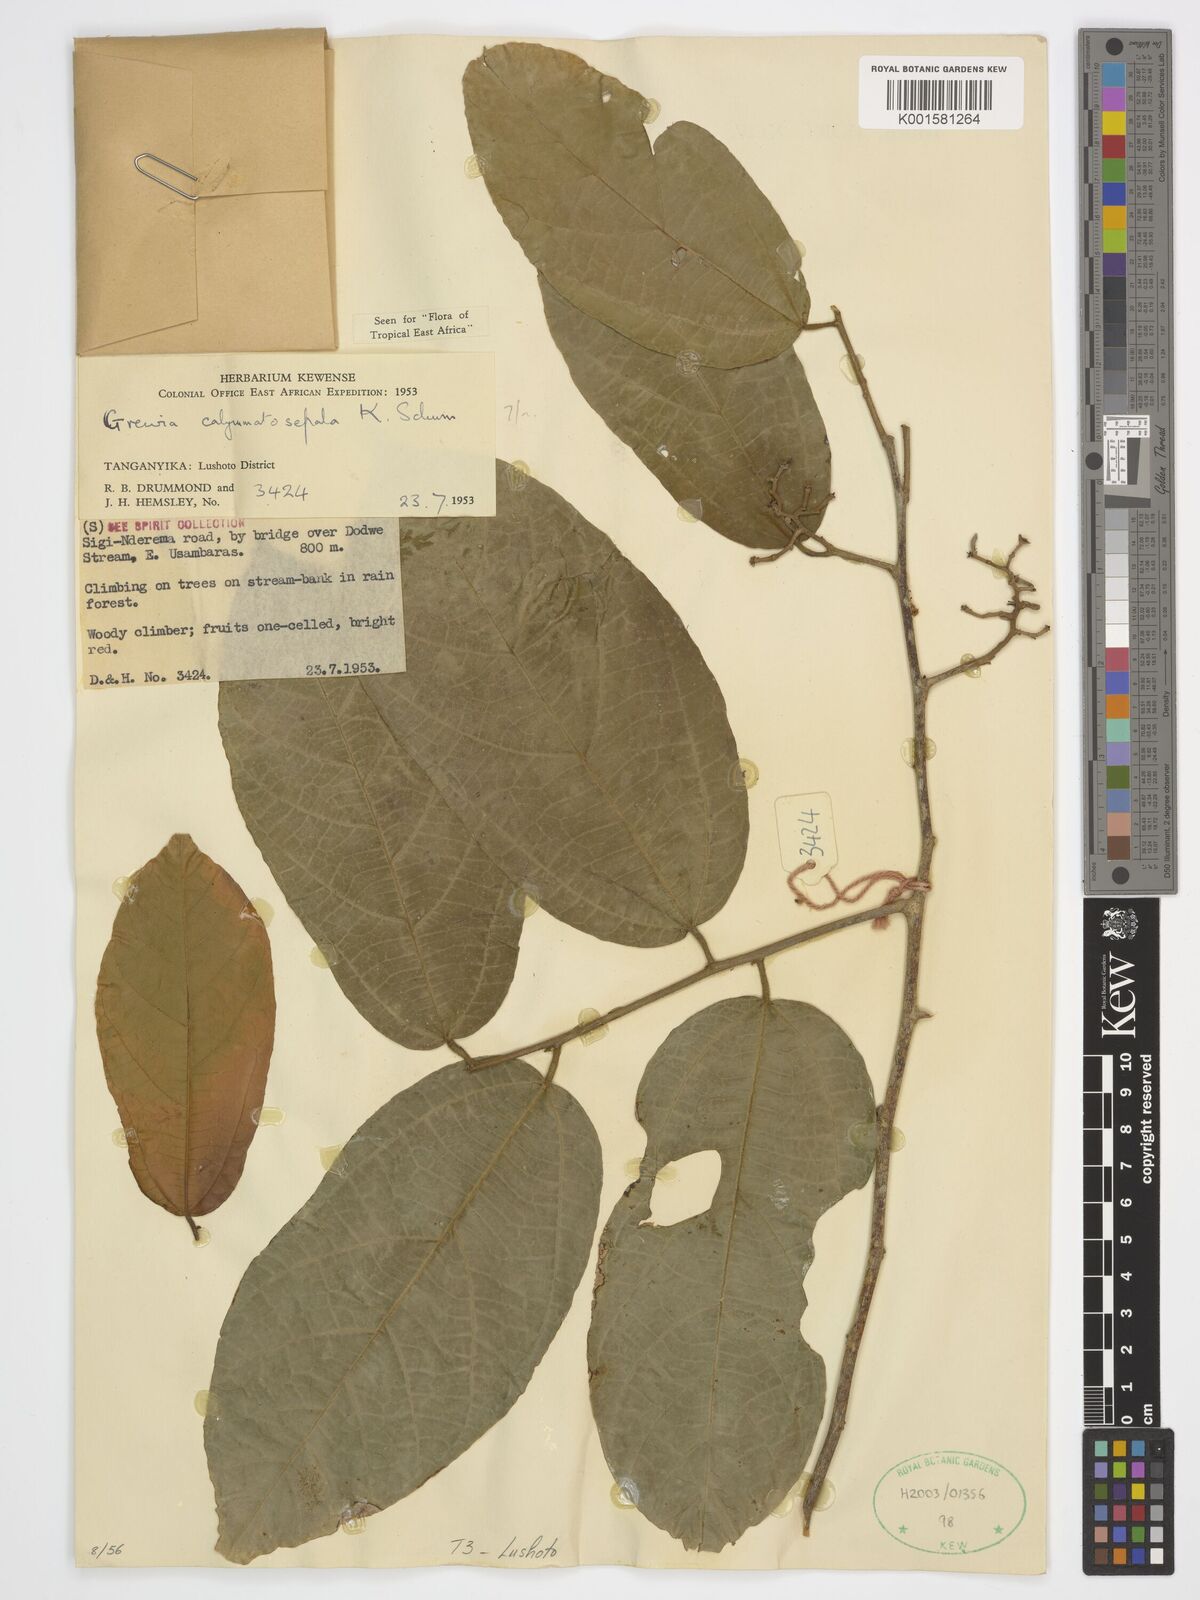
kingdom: Plantae
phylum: Tracheophyta
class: Magnoliopsida
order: Malvales
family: Malvaceae
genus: Microcos
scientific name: Microcos calymmatosepala
